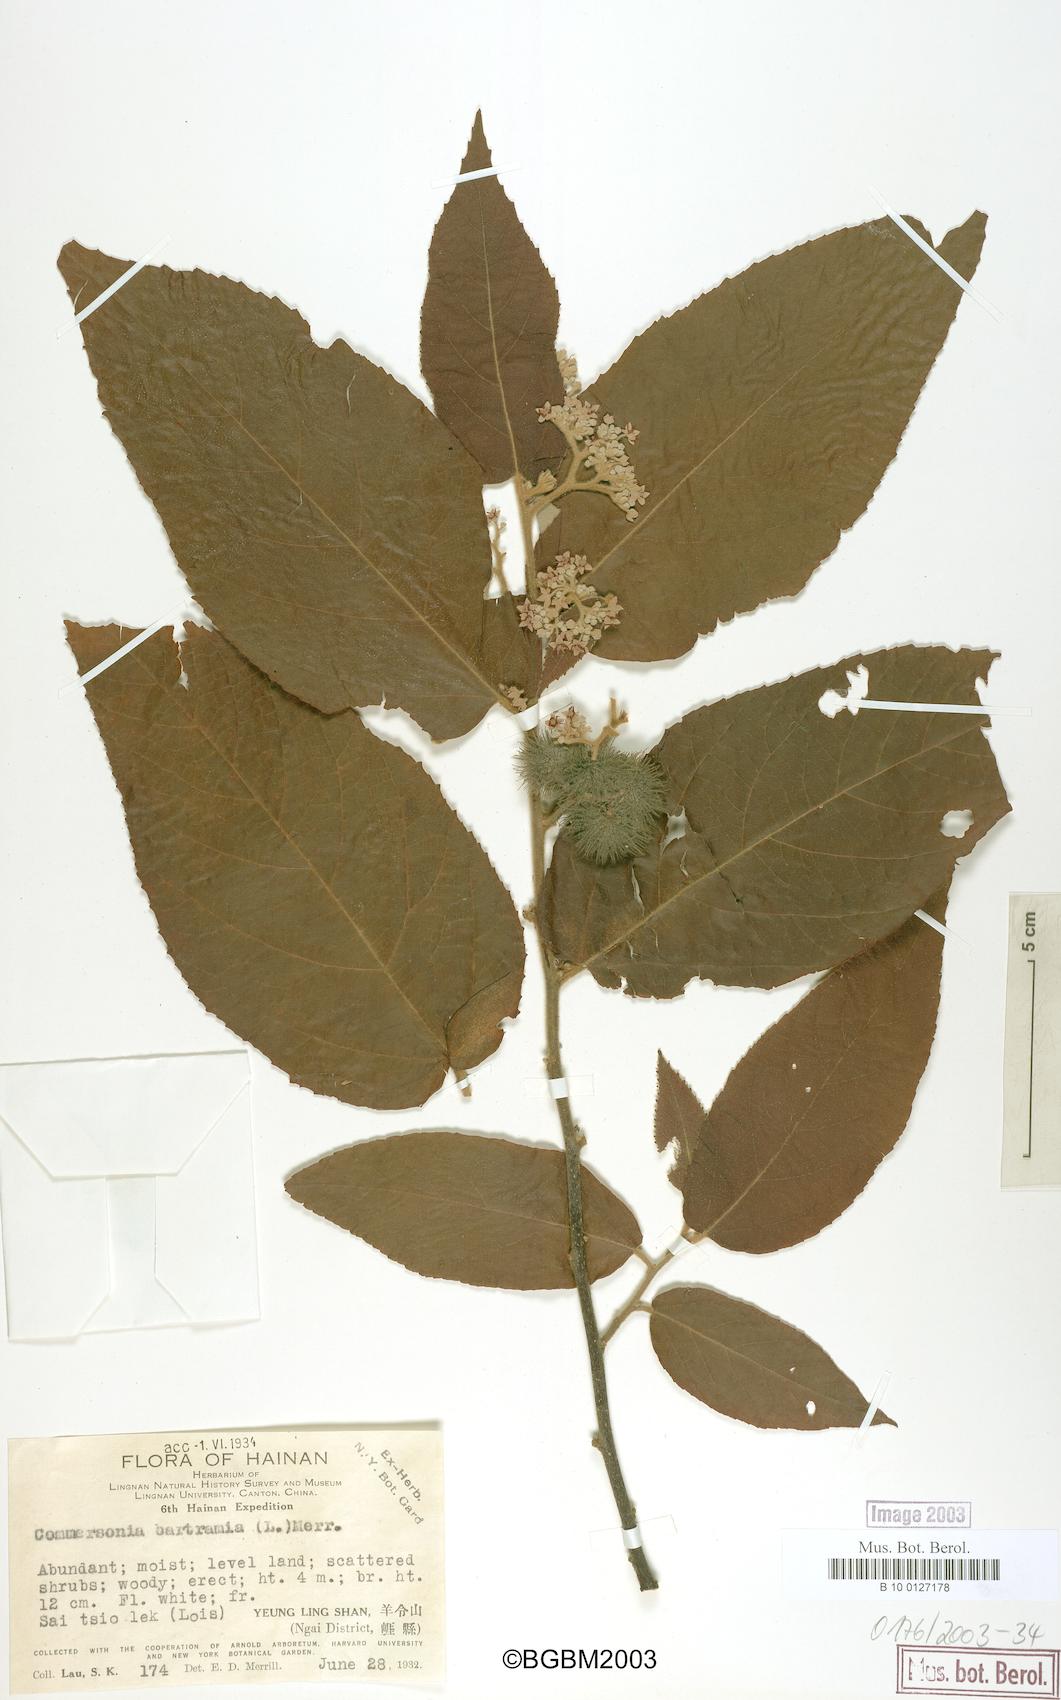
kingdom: Plantae
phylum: Tracheophyta
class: Magnoliopsida
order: Malvales
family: Malvaceae
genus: Commersonia
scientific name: Commersonia bartramia
